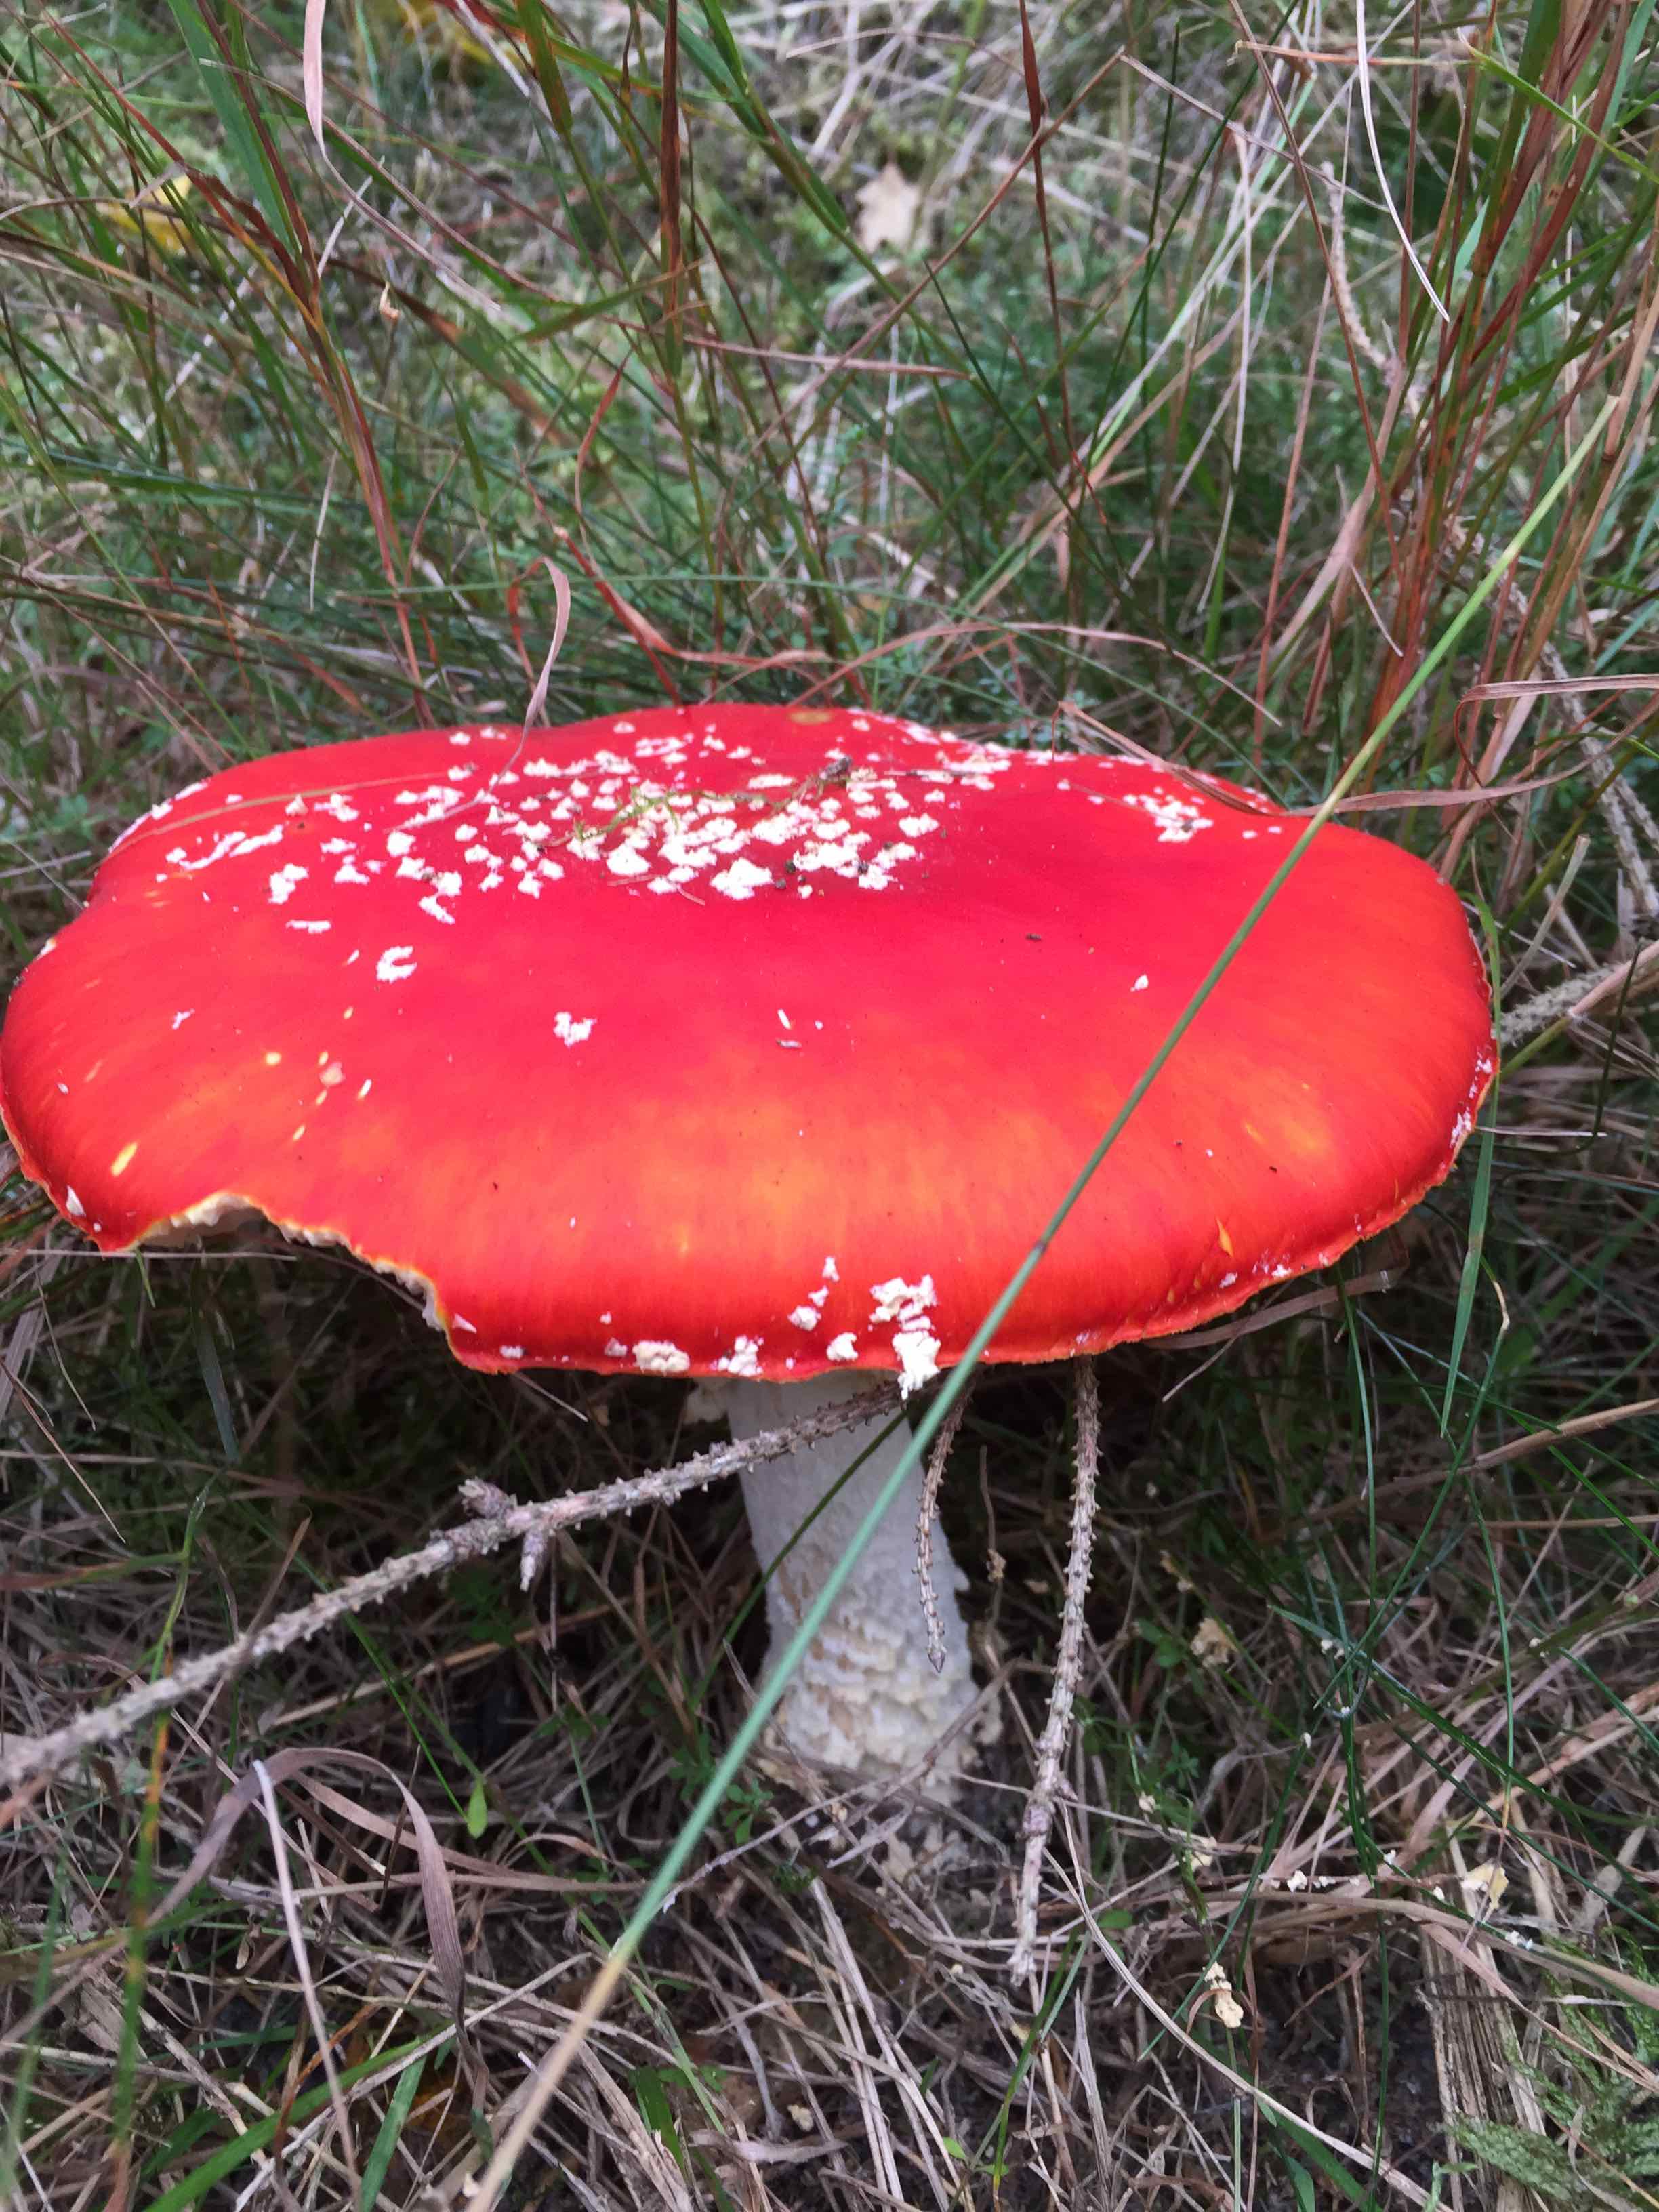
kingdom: Fungi
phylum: Basidiomycota
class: Agaricomycetes
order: Agaricales
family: Amanitaceae
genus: Amanita
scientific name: Amanita muscaria
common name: rød fluesvamp
